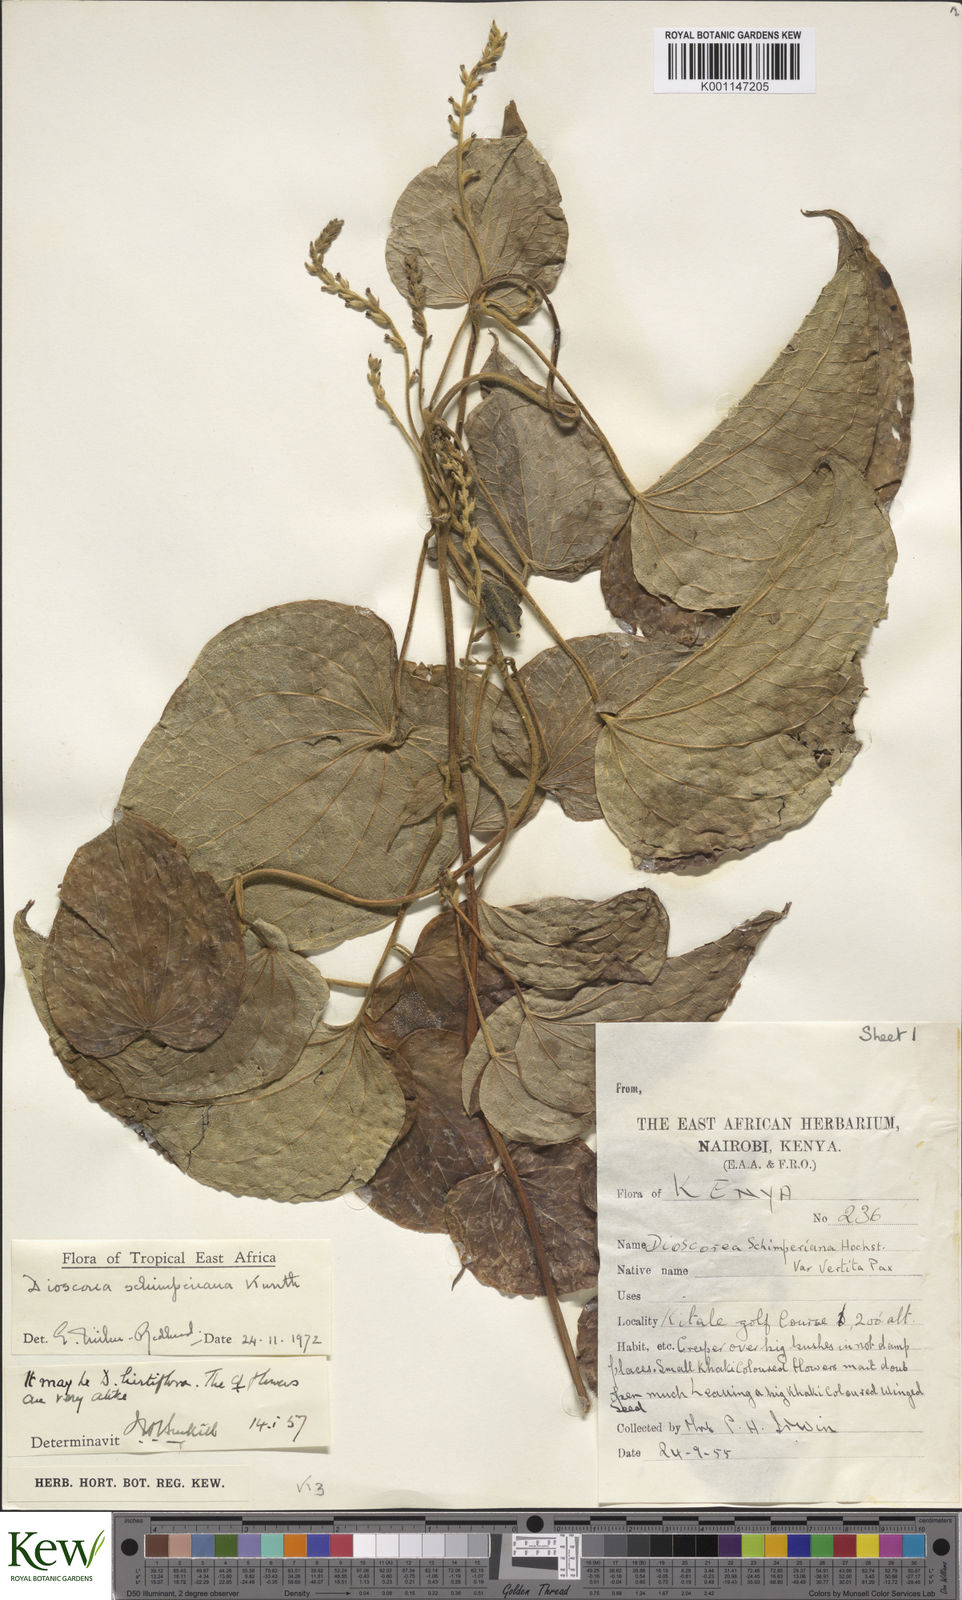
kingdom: Plantae
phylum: Tracheophyta
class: Liliopsida
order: Dioscoreales
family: Dioscoreaceae
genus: Dioscorea
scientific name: Dioscorea schimperiana
